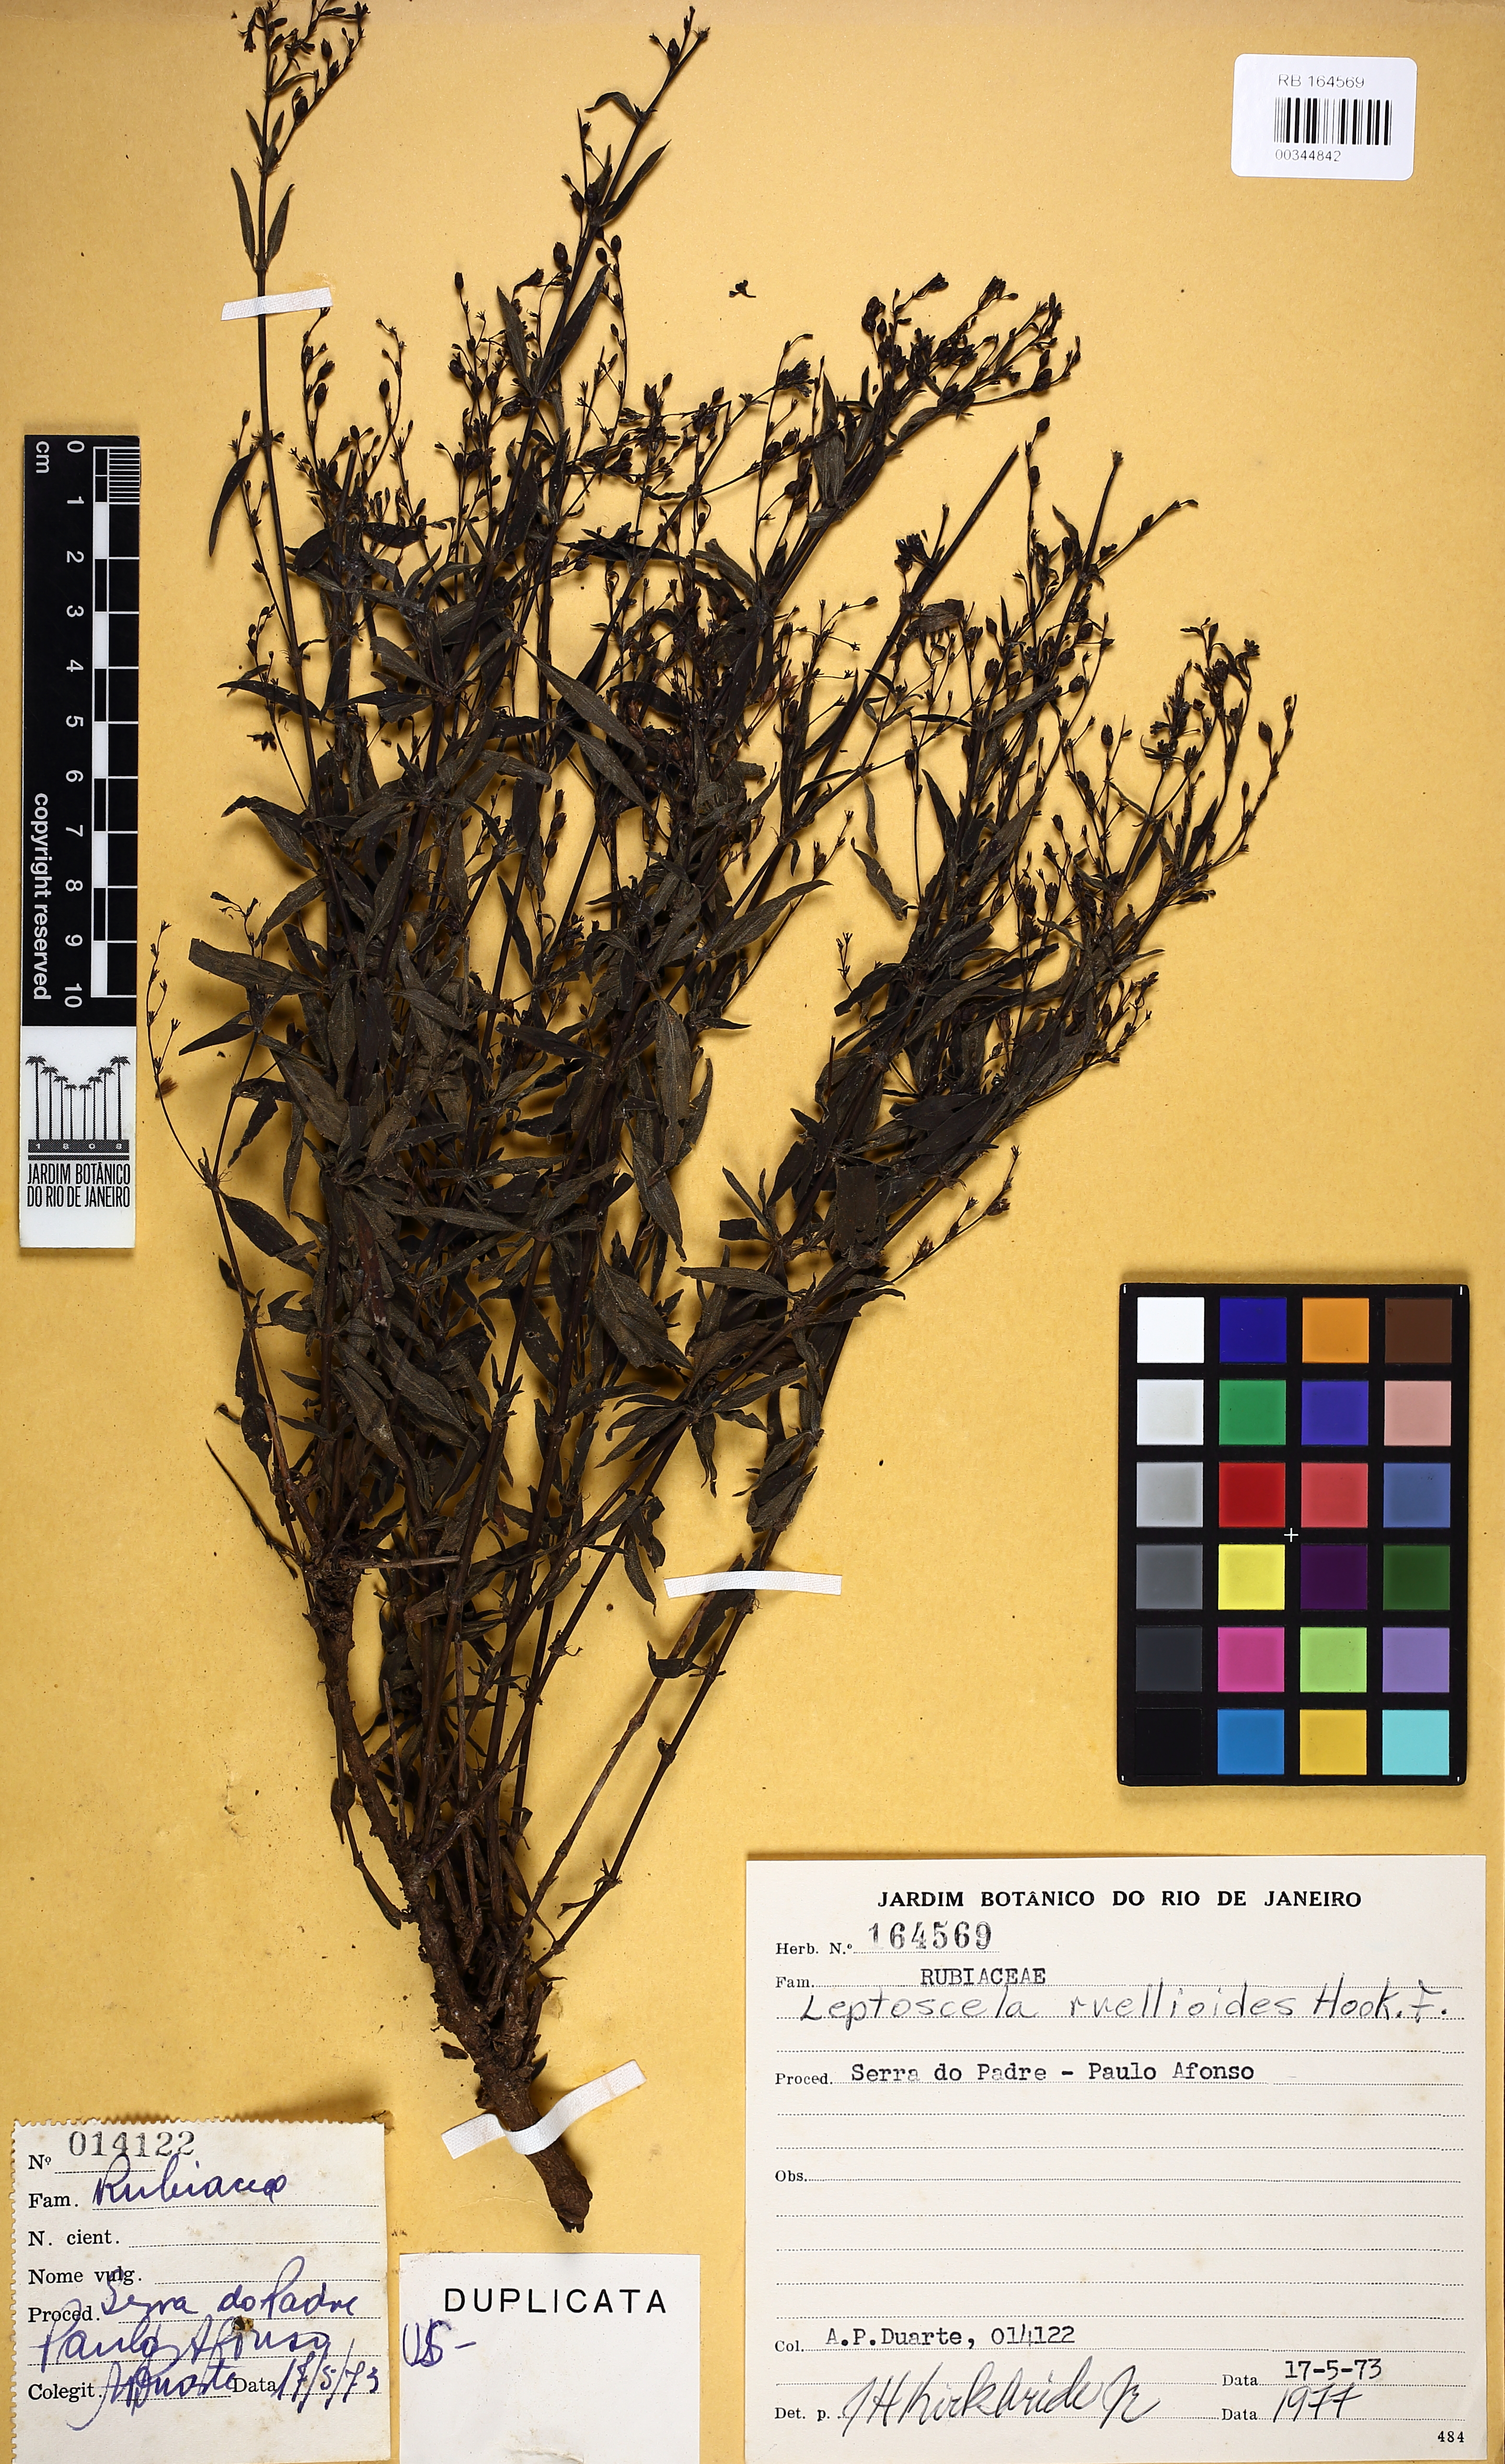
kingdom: Plantae
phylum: Tracheophyta
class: Magnoliopsida
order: Gentianales
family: Rubiaceae
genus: Leptoscela
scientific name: Leptoscela ruellioides
